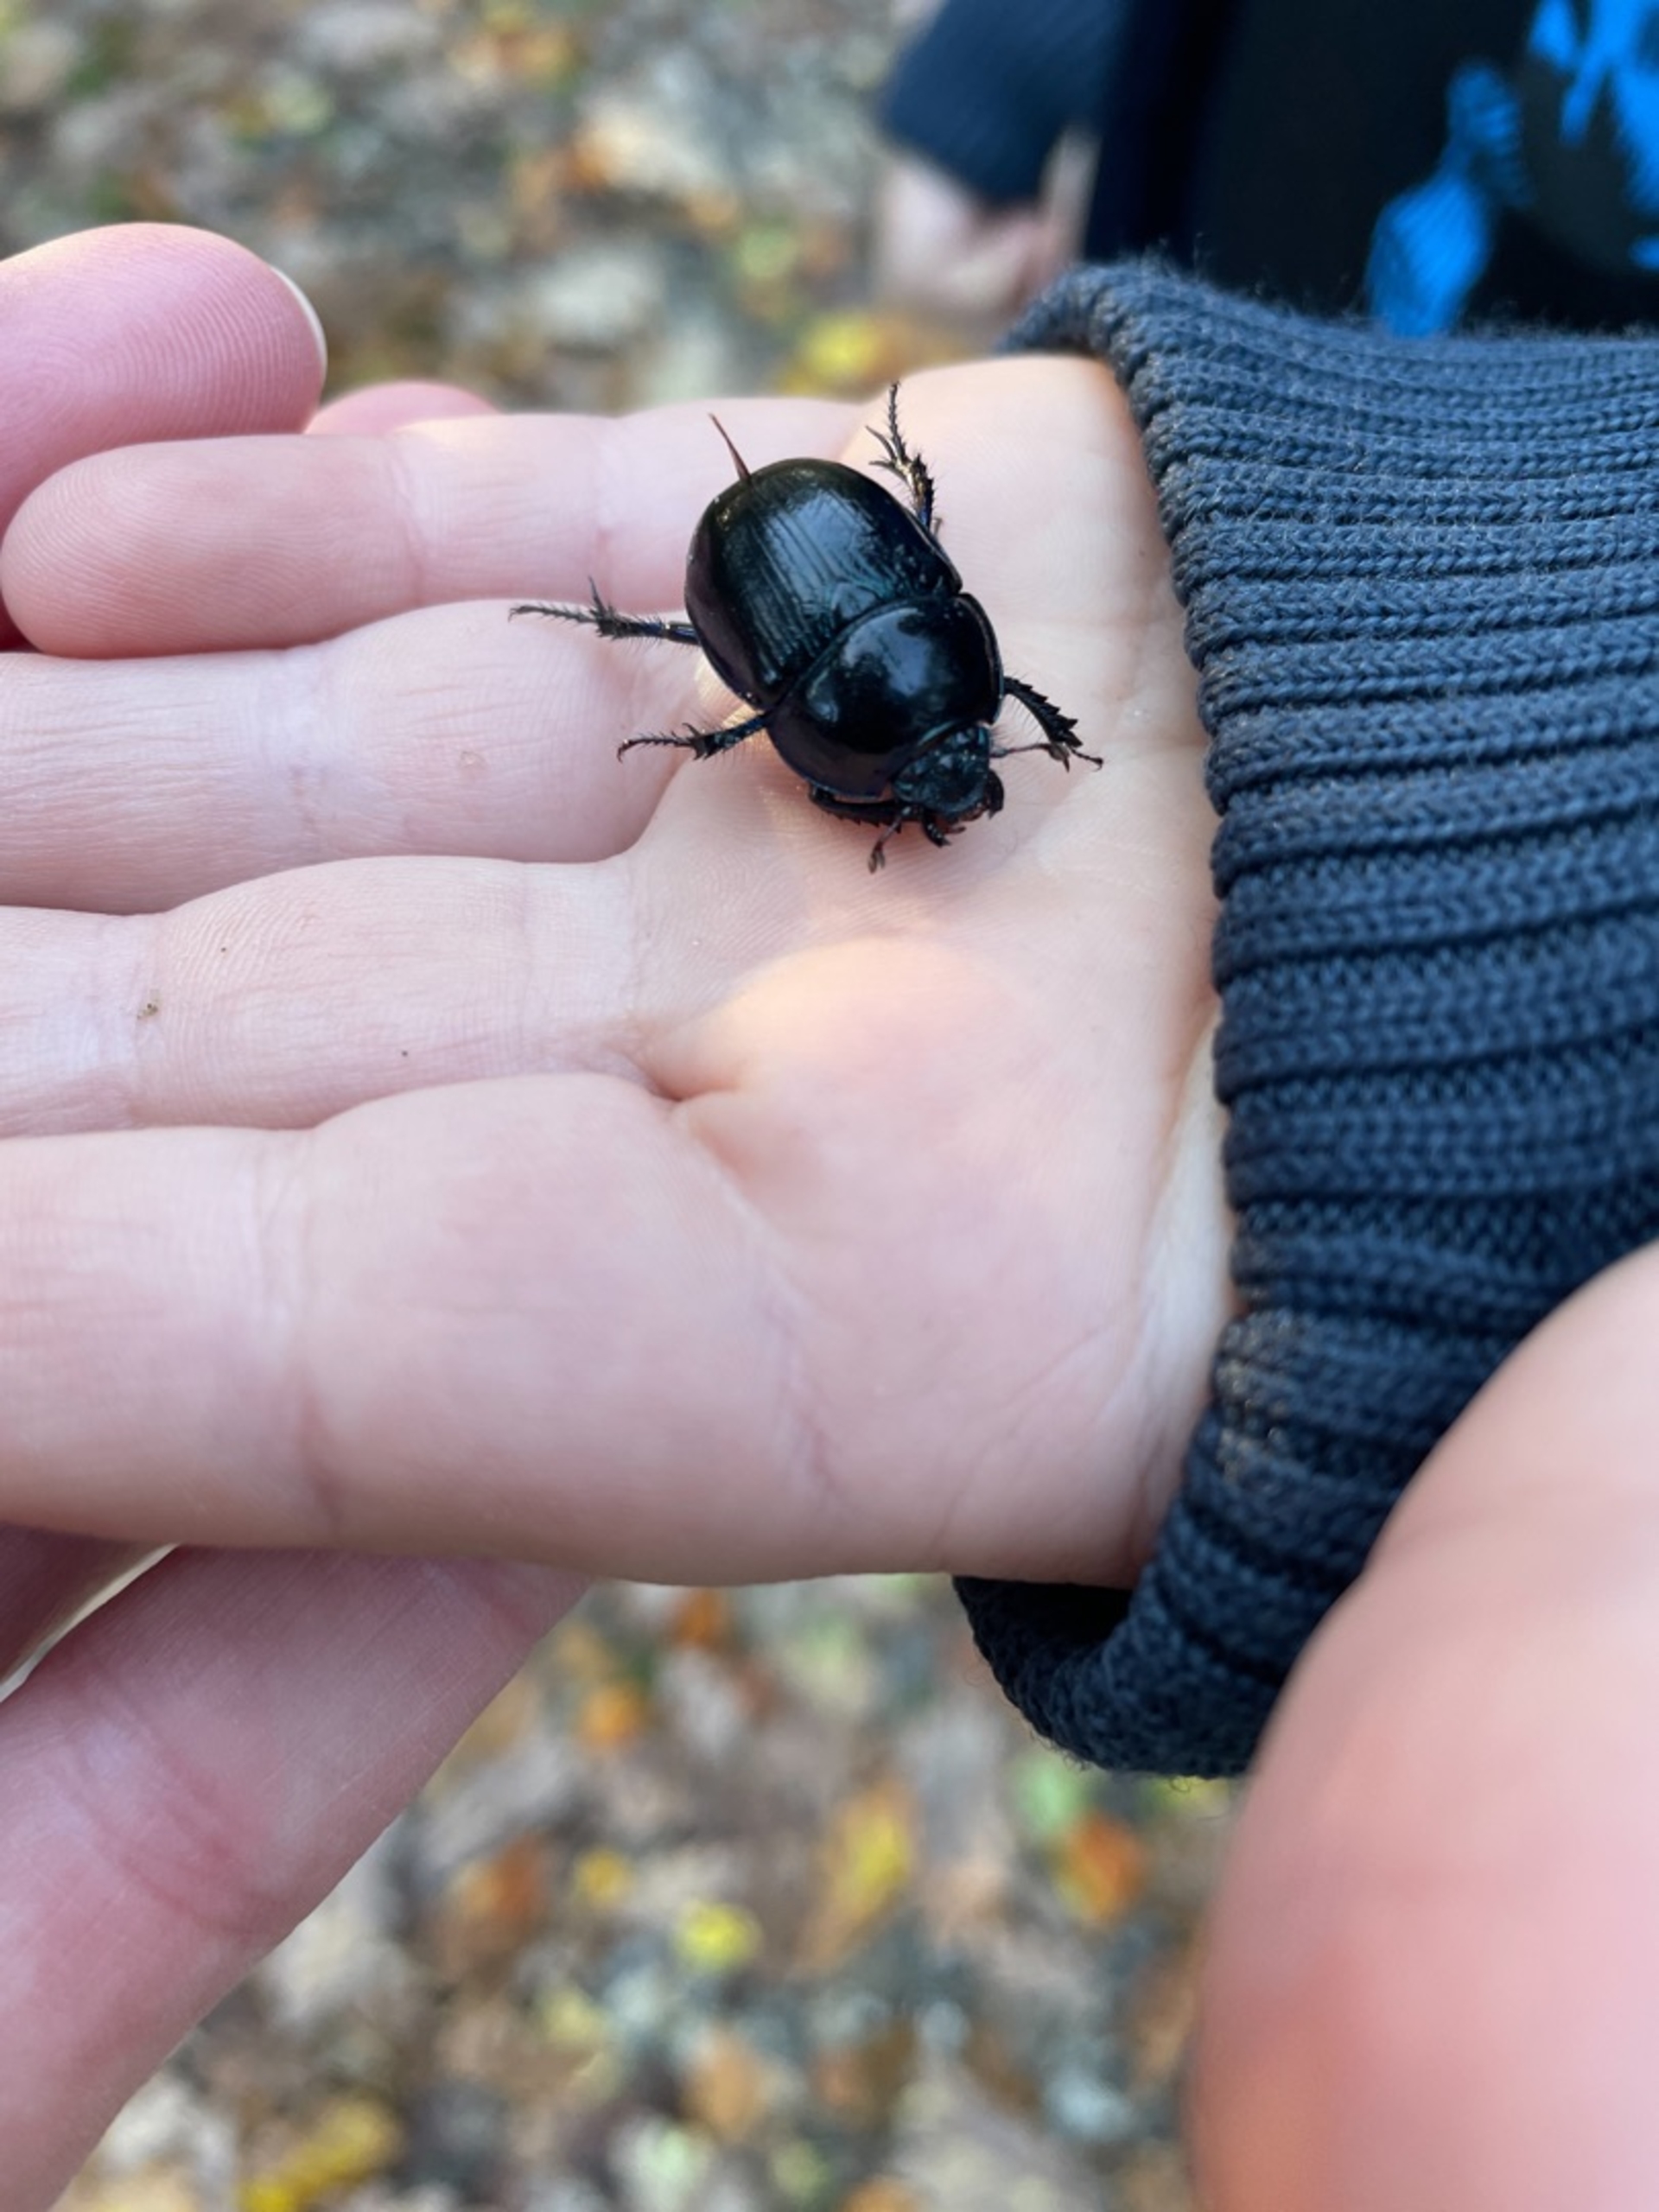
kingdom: Animalia
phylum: Arthropoda
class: Insecta
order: Coleoptera
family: Geotrupidae
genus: Anoplotrupes
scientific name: Anoplotrupes stercorosus
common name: Skovskarnbasse
